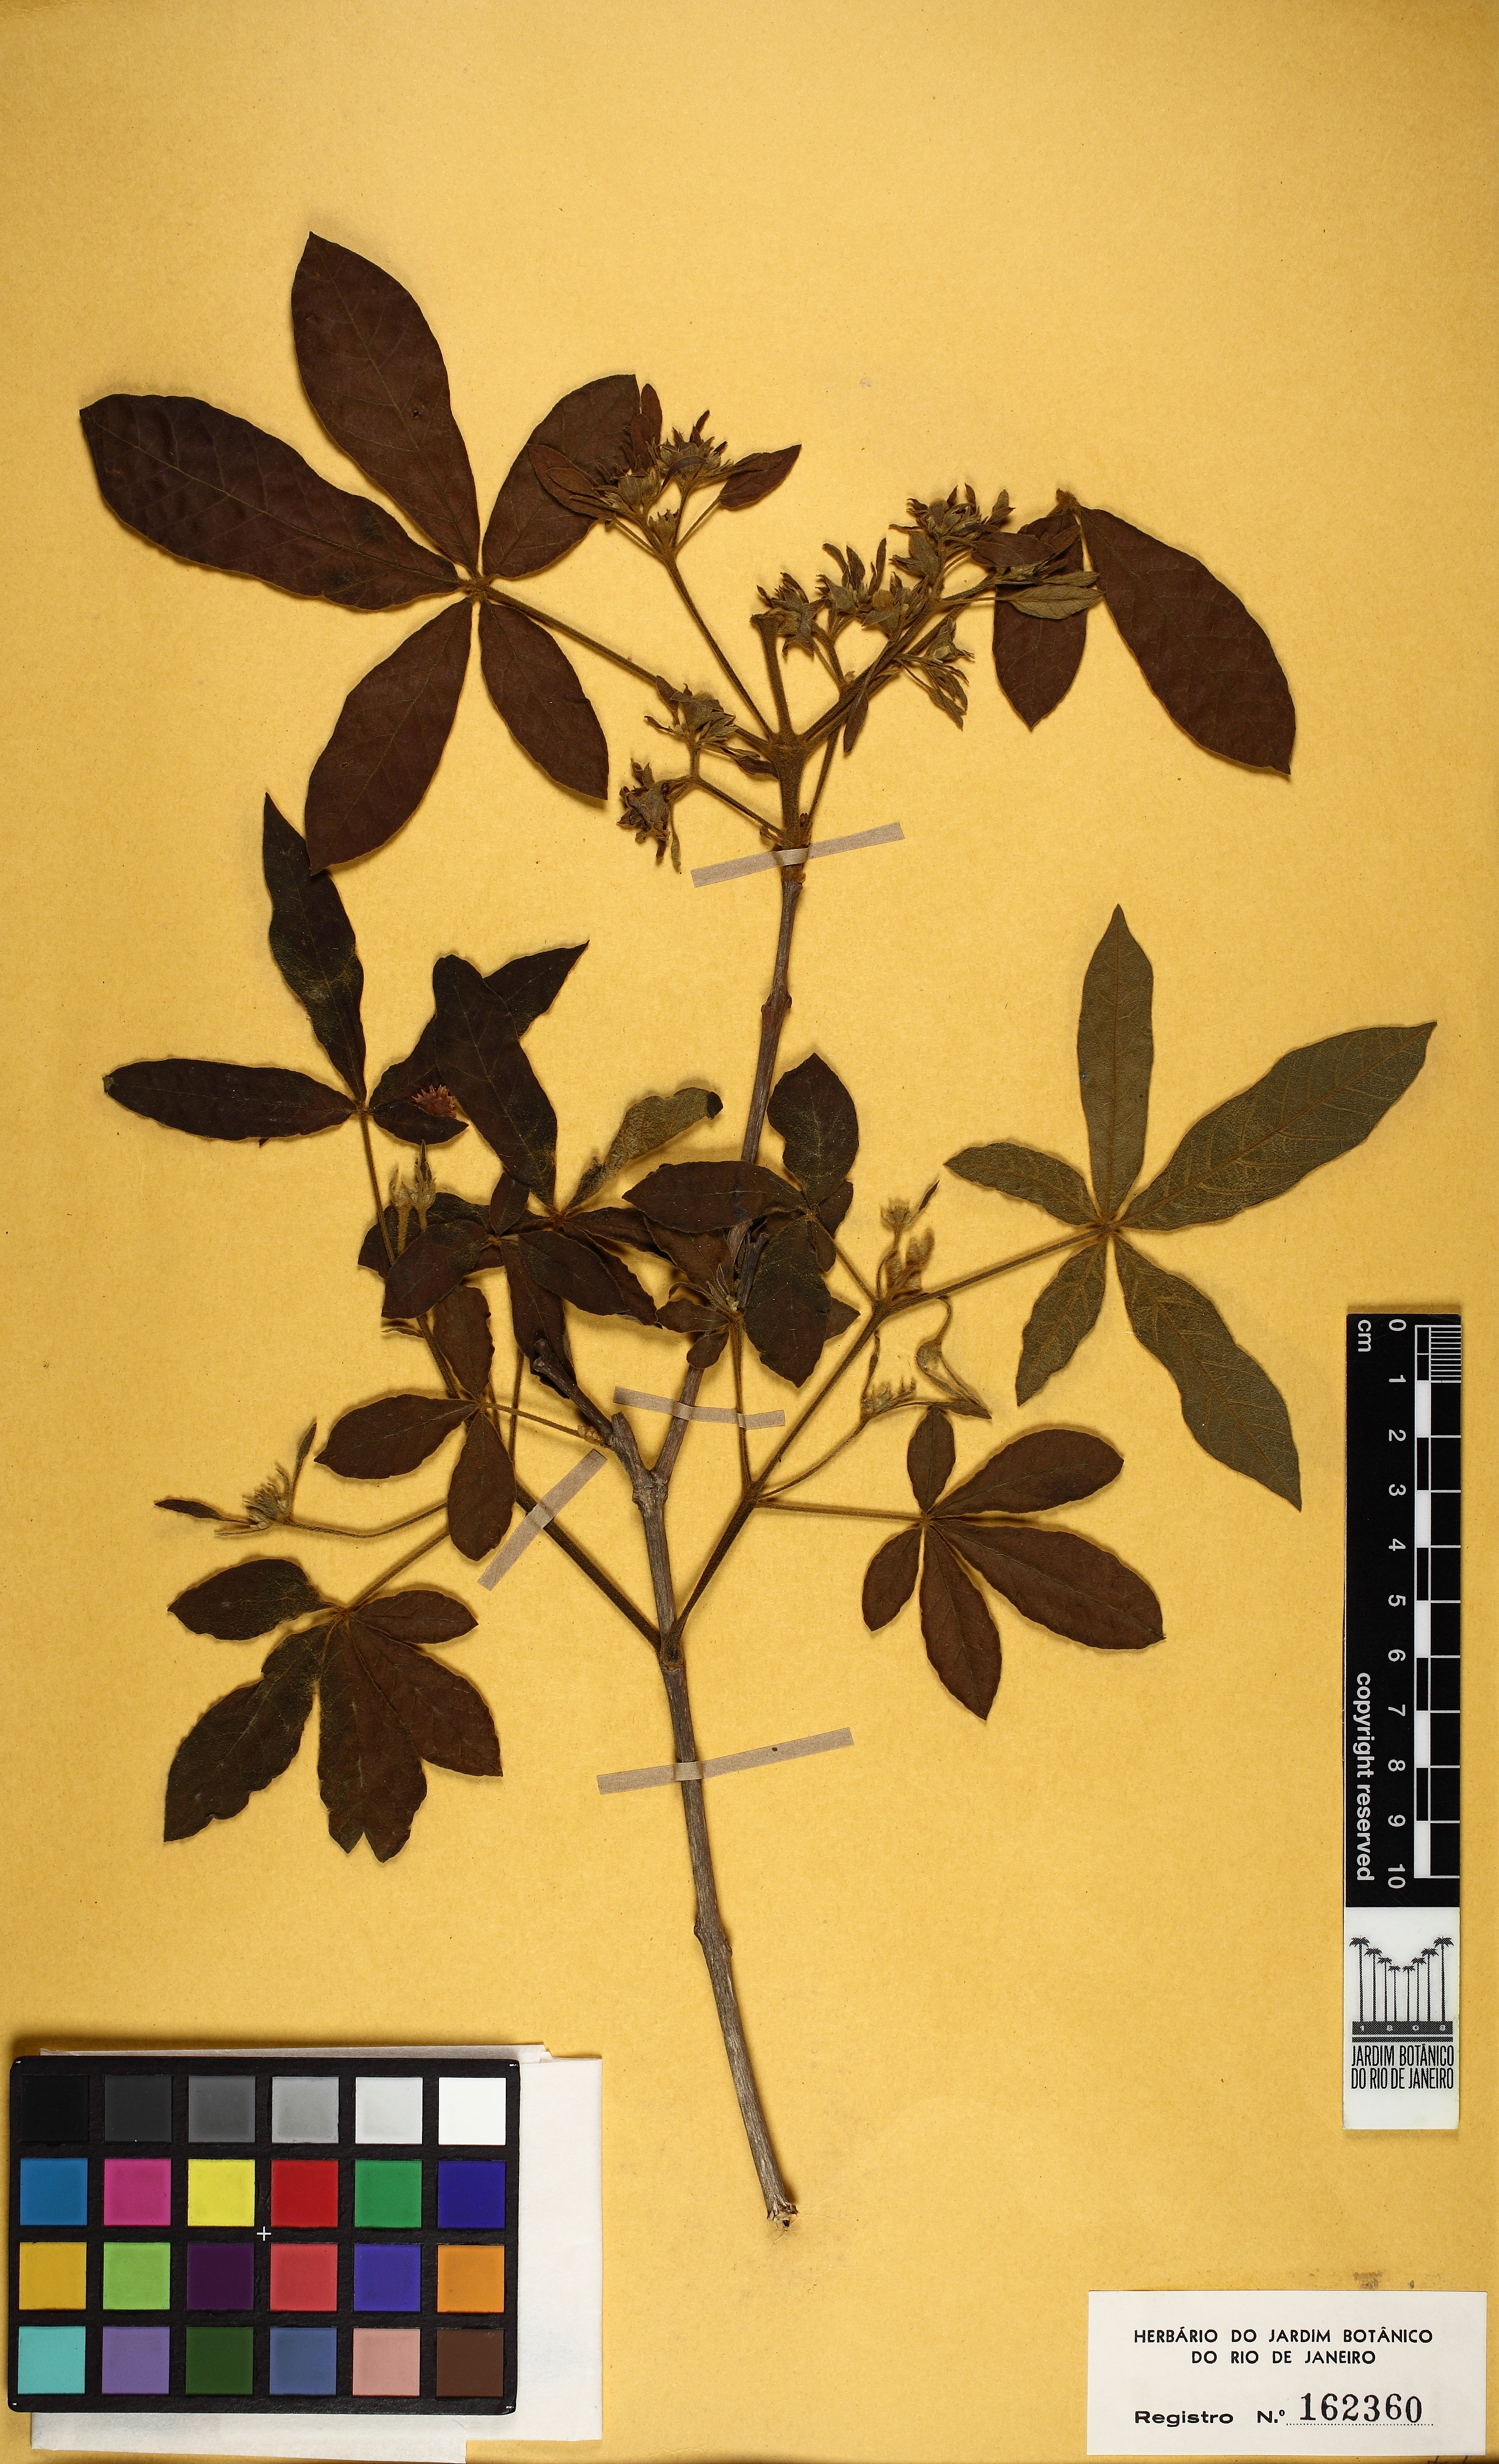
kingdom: Plantae
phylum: Tracheophyta
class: Magnoliopsida
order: Lamiales
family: Lamiaceae
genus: Vitex
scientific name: Vitex polygama
